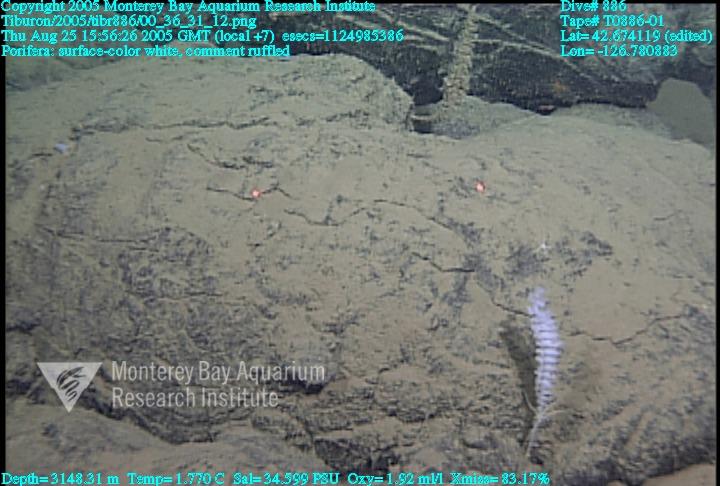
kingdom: Animalia
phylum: Porifera
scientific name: Porifera
